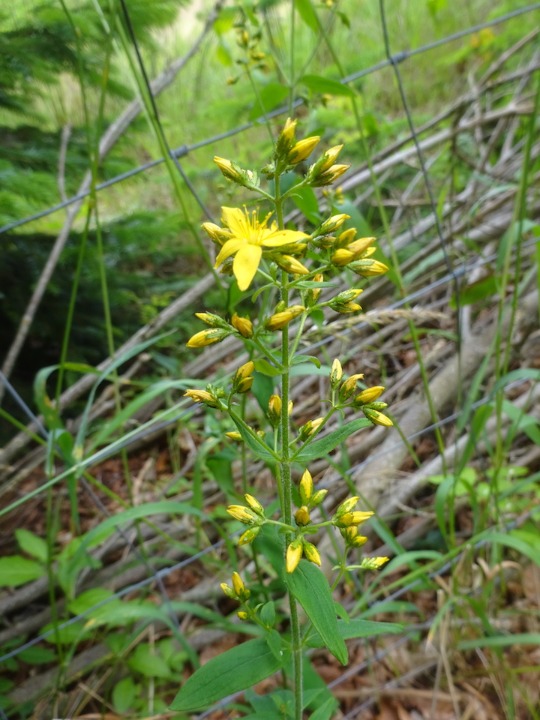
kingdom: Plantae
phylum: Tracheophyta
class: Magnoliopsida
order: Malpighiales
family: Hypericaceae
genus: Hypericum
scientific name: Hypericum hirsutum
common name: Lådden perikon
